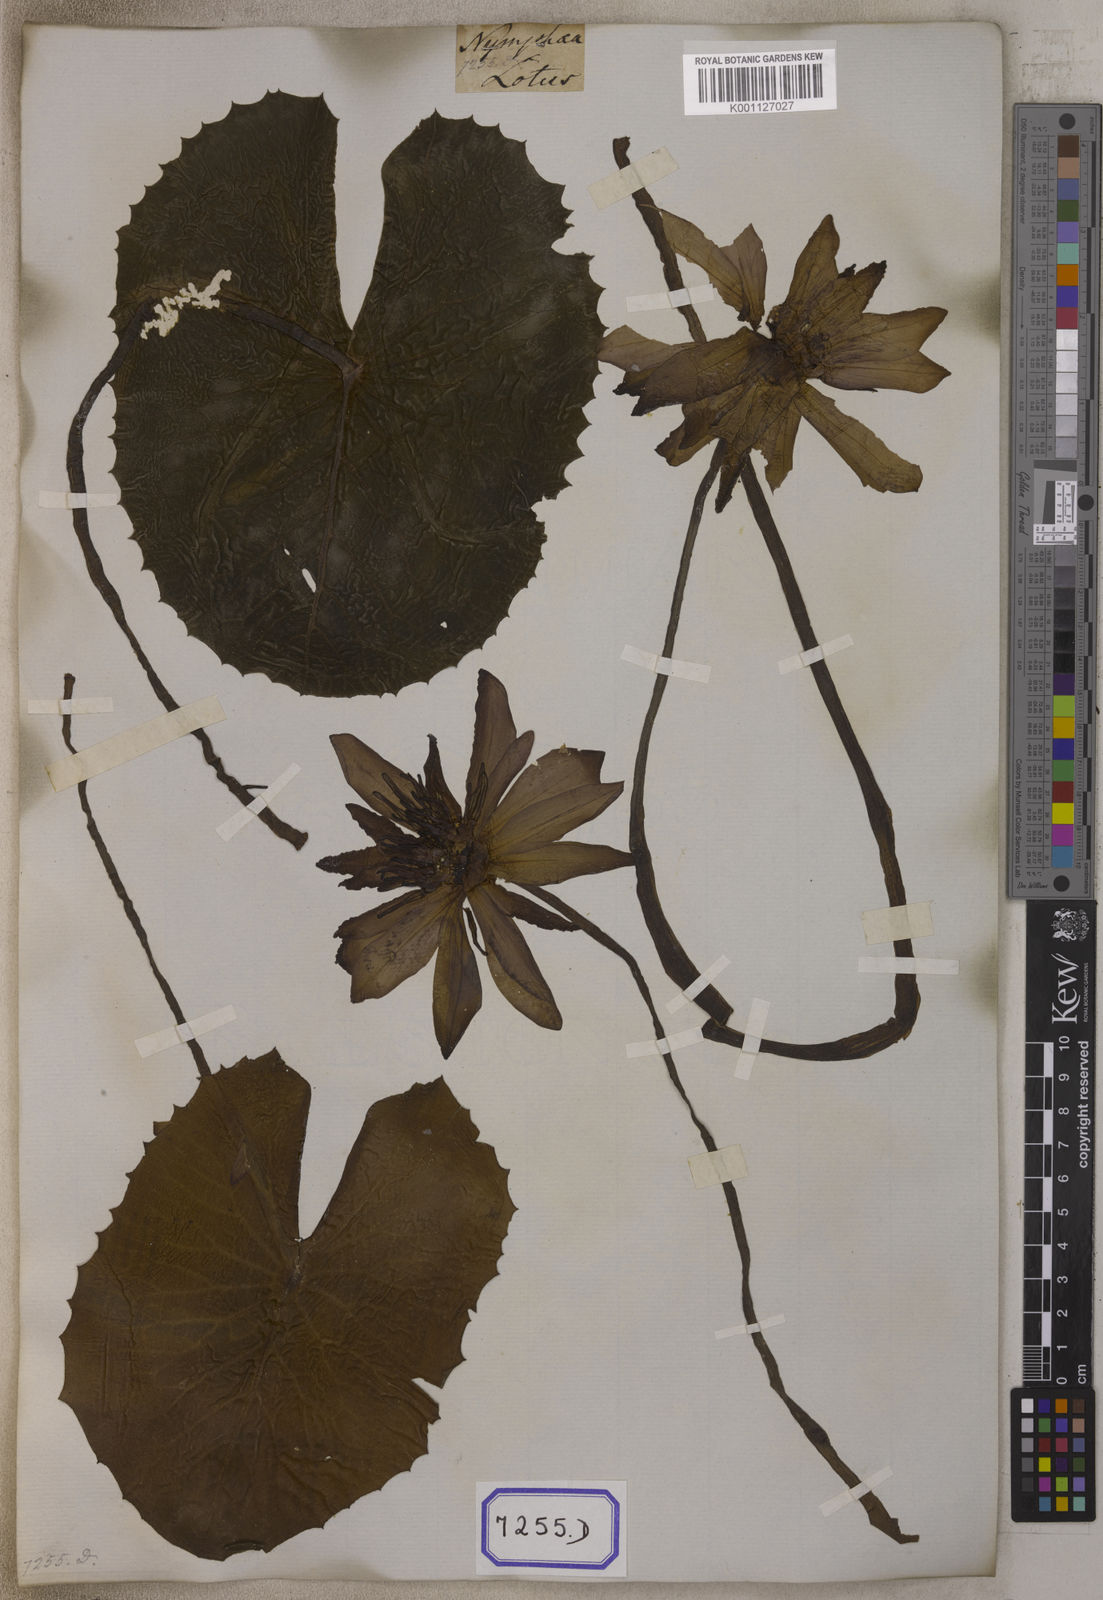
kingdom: Plantae
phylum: Tracheophyta
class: Magnoliopsida
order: Nymphaeales
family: Nymphaeaceae
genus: Nymphaea
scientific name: Nymphaea
